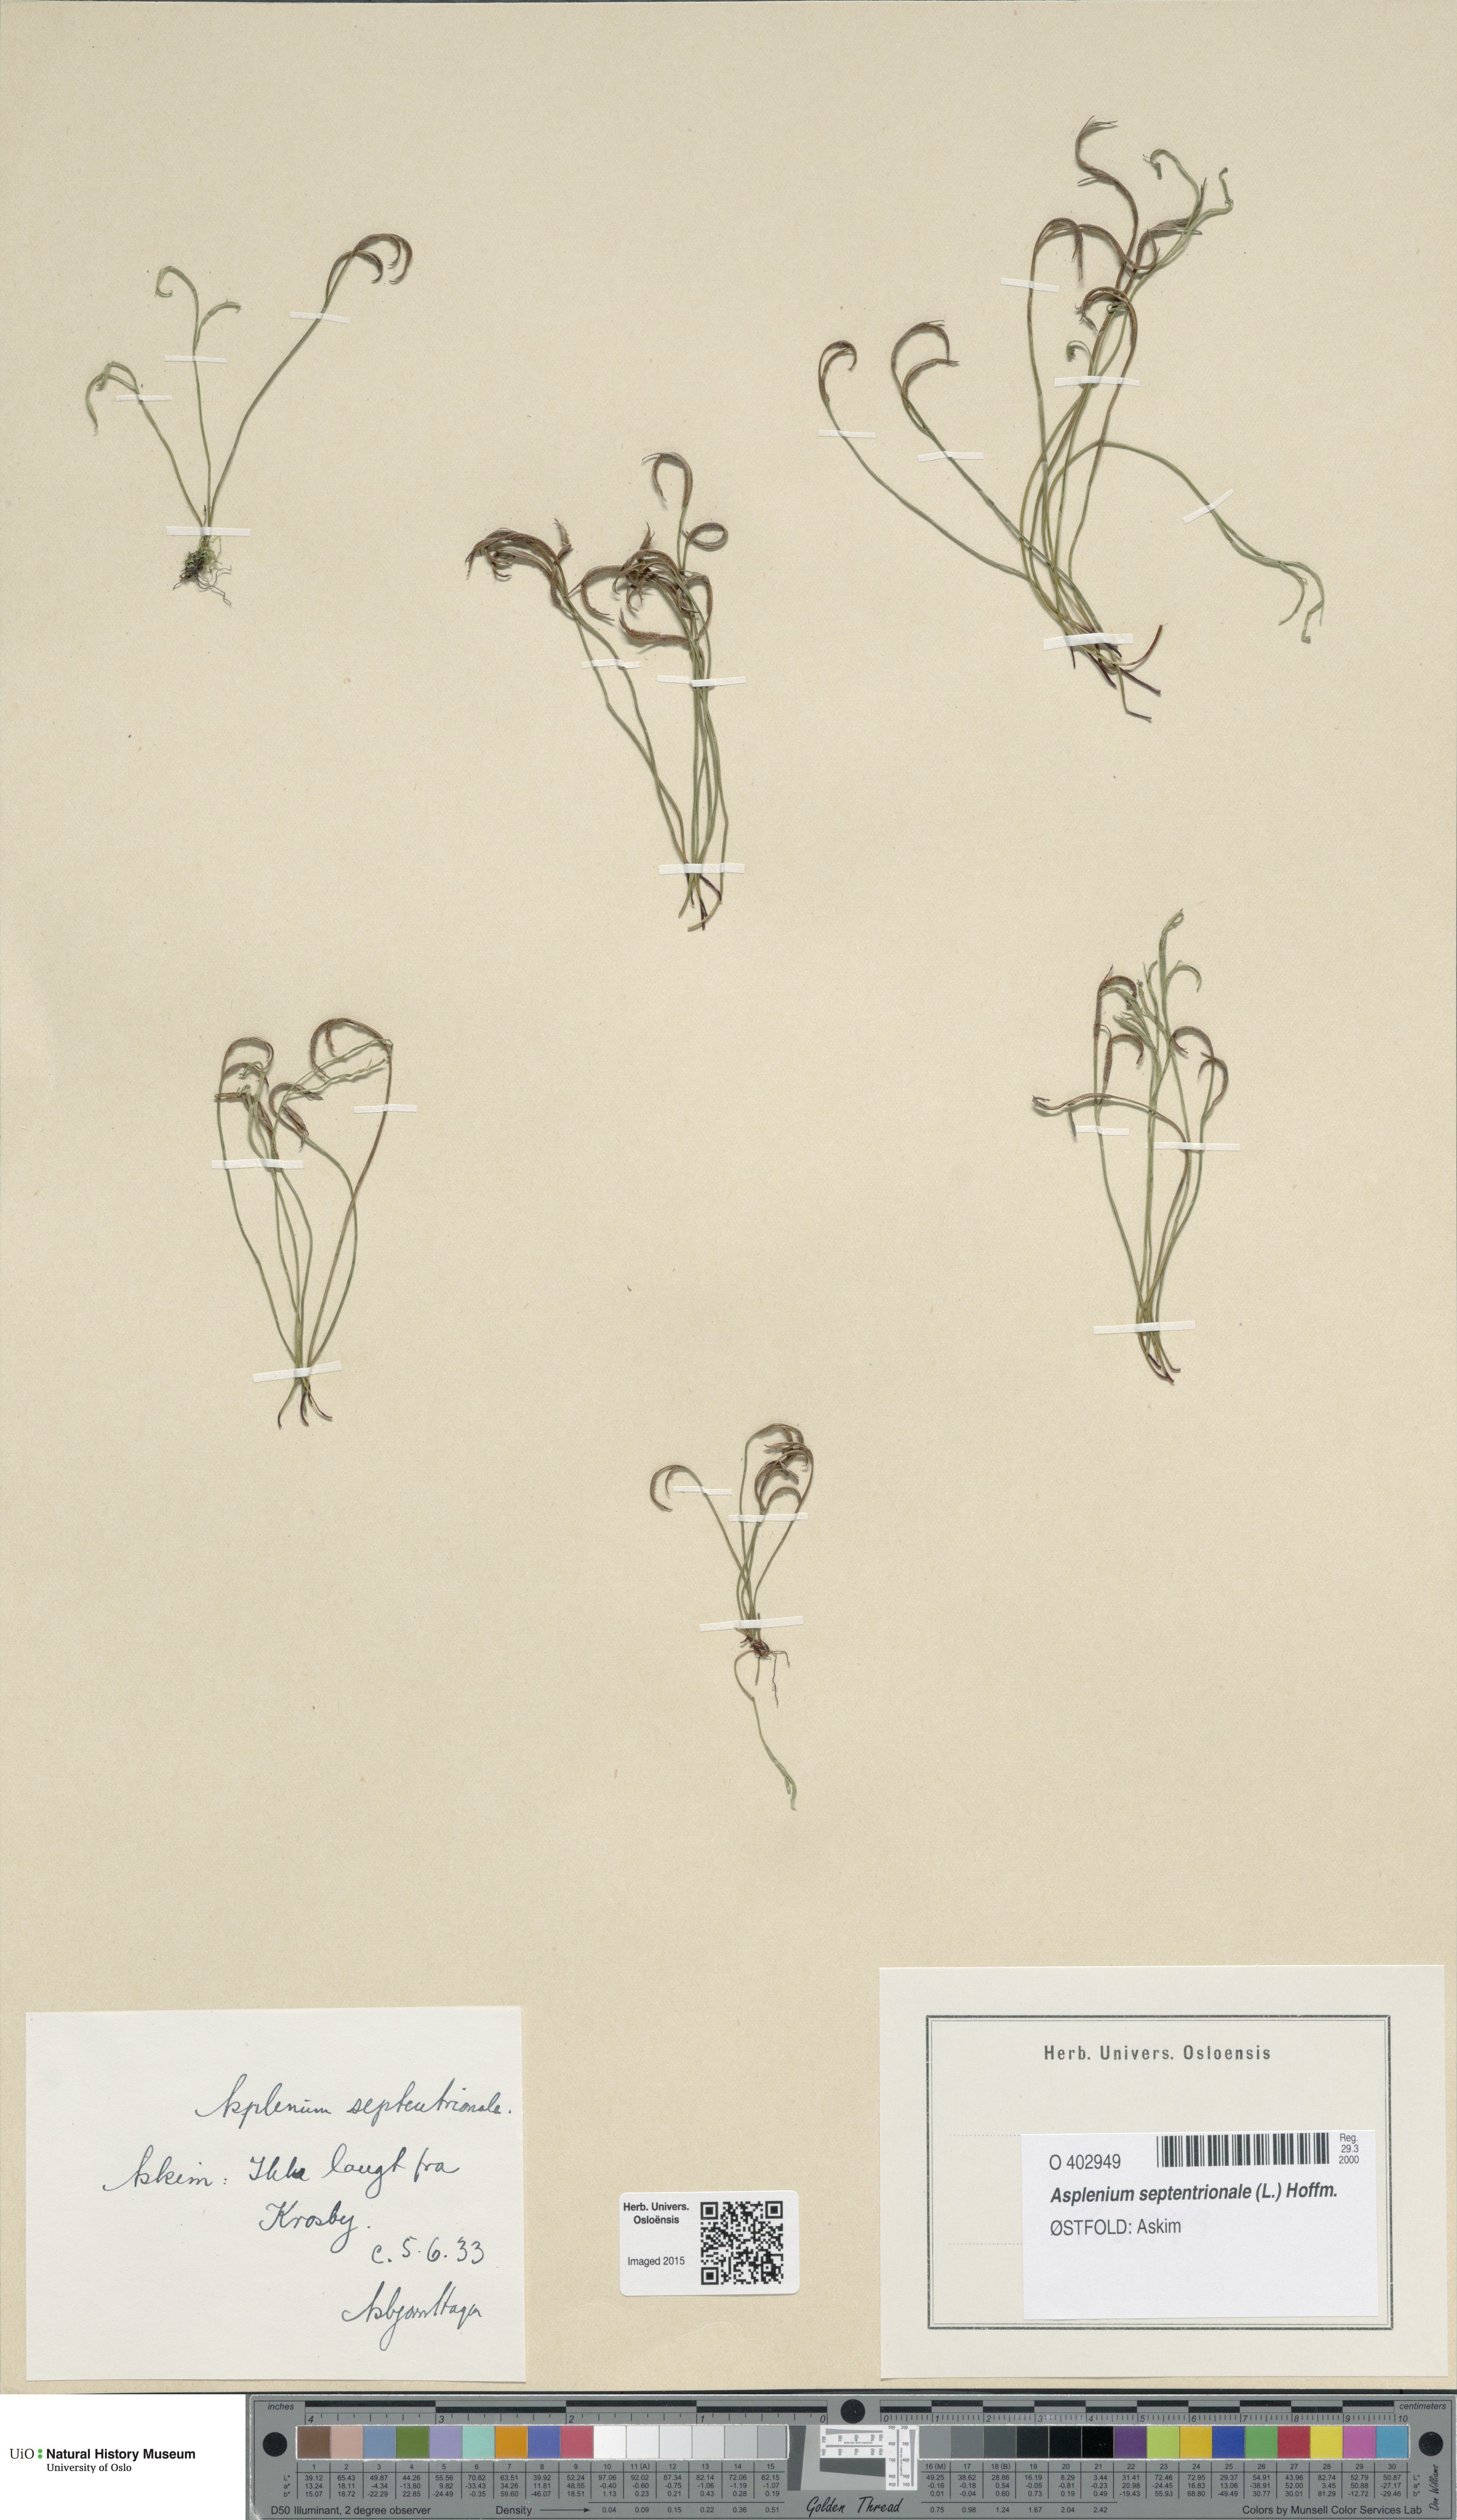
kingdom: Plantae
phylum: Tracheophyta
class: Polypodiopsida
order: Polypodiales
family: Aspleniaceae
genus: Asplenium
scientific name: Asplenium septentrionale
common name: Forked spleenwort
